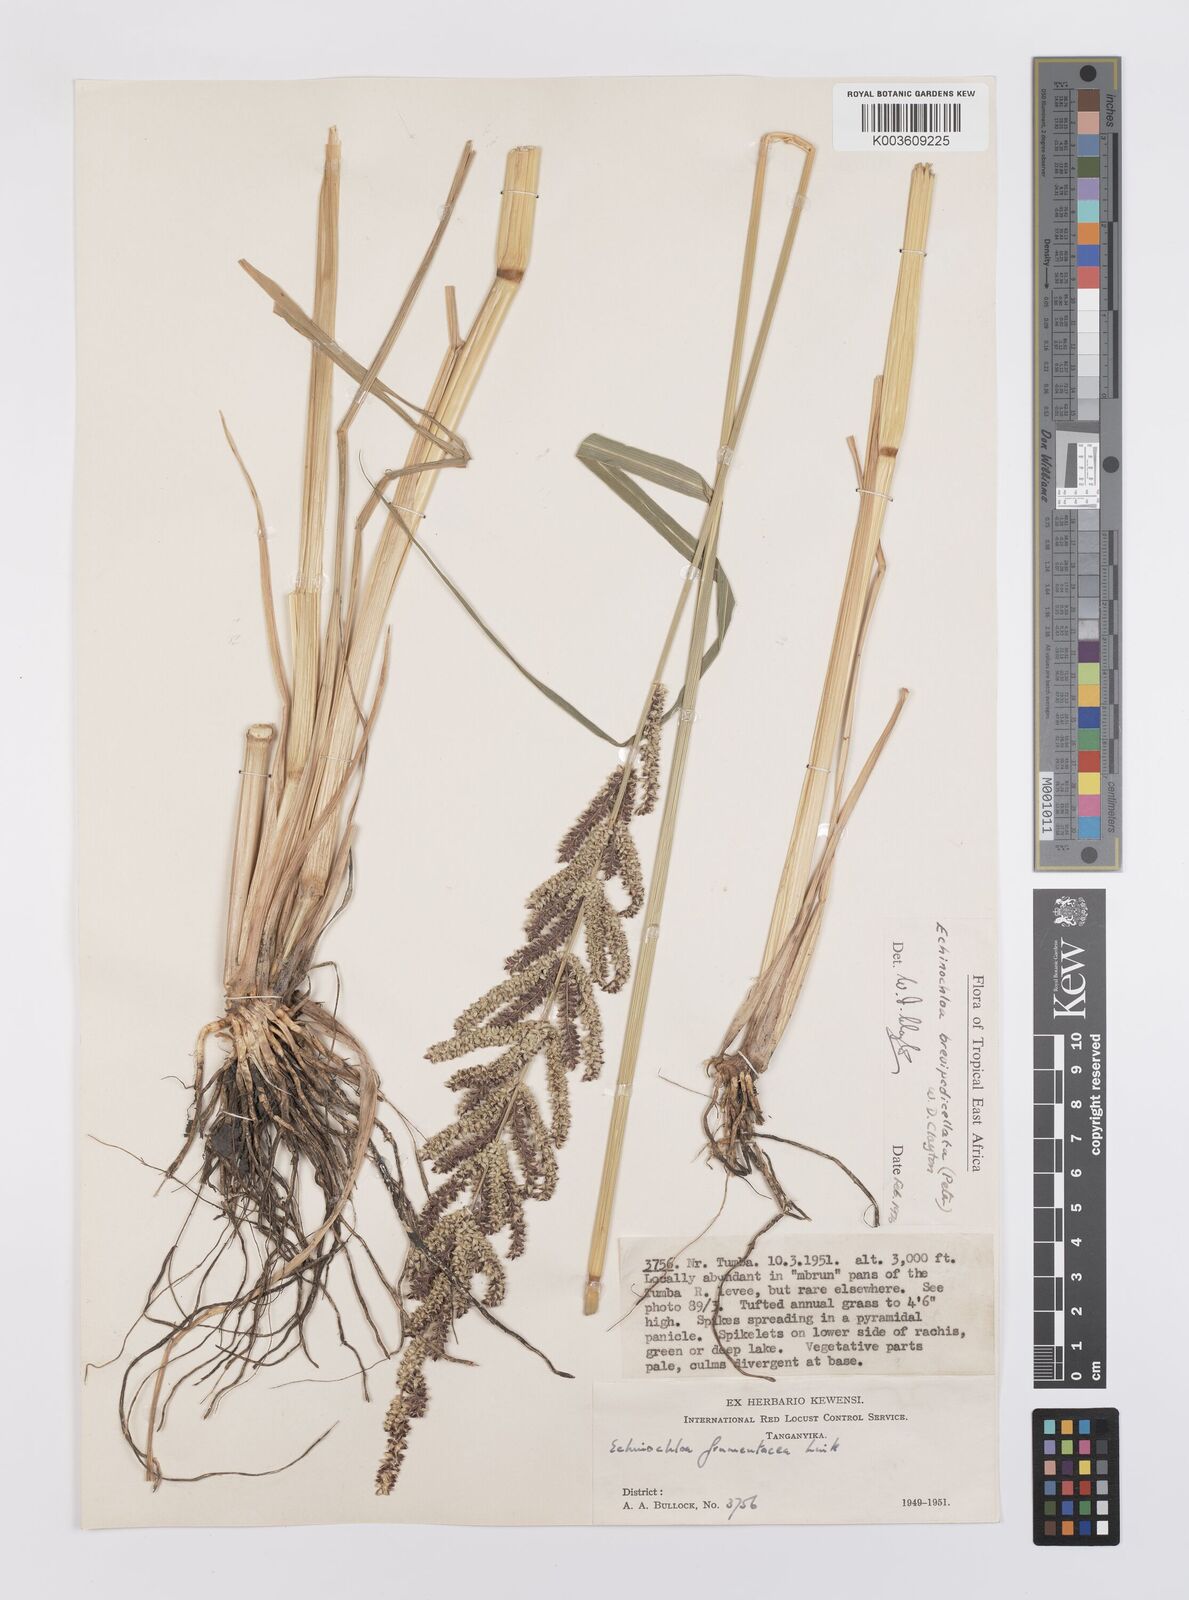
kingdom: Plantae
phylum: Tracheophyta
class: Liliopsida
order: Poales
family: Poaceae
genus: Echinochloa
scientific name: Echinochloa brevipedicellata
